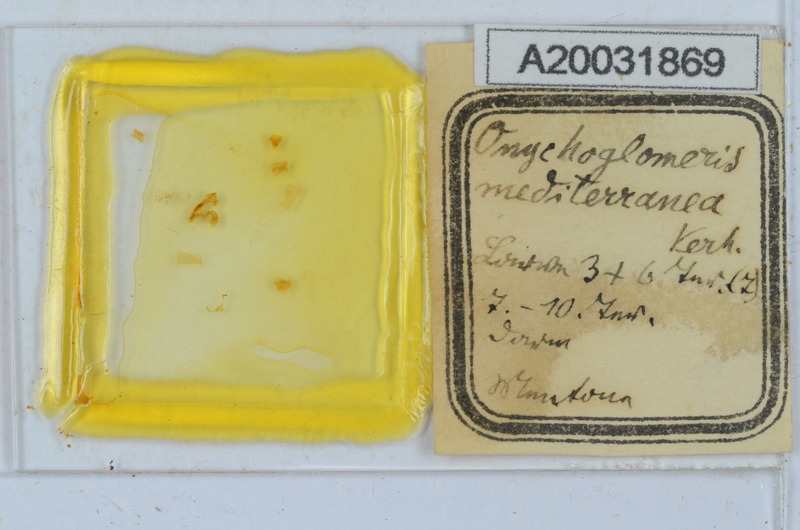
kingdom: Animalia
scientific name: Animalia
